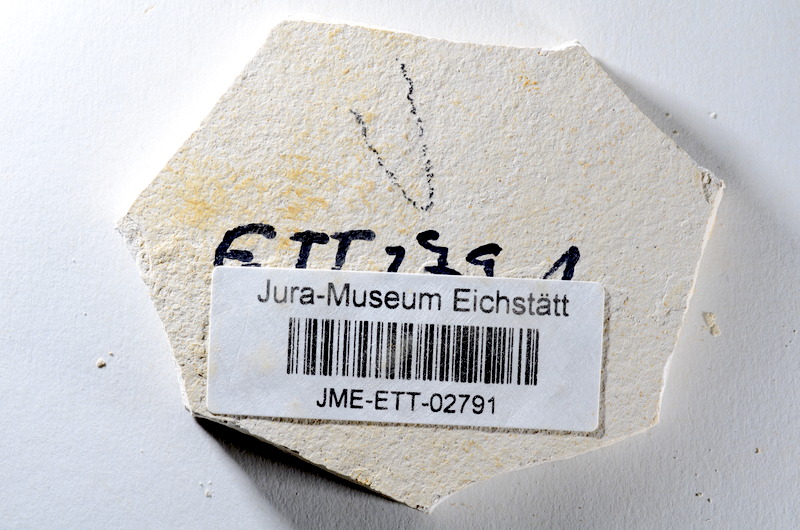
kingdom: Animalia
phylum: Chordata
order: Salmoniformes
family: Orthogonikleithridae
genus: Orthogonikleithrus
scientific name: Orthogonikleithrus hoelli
